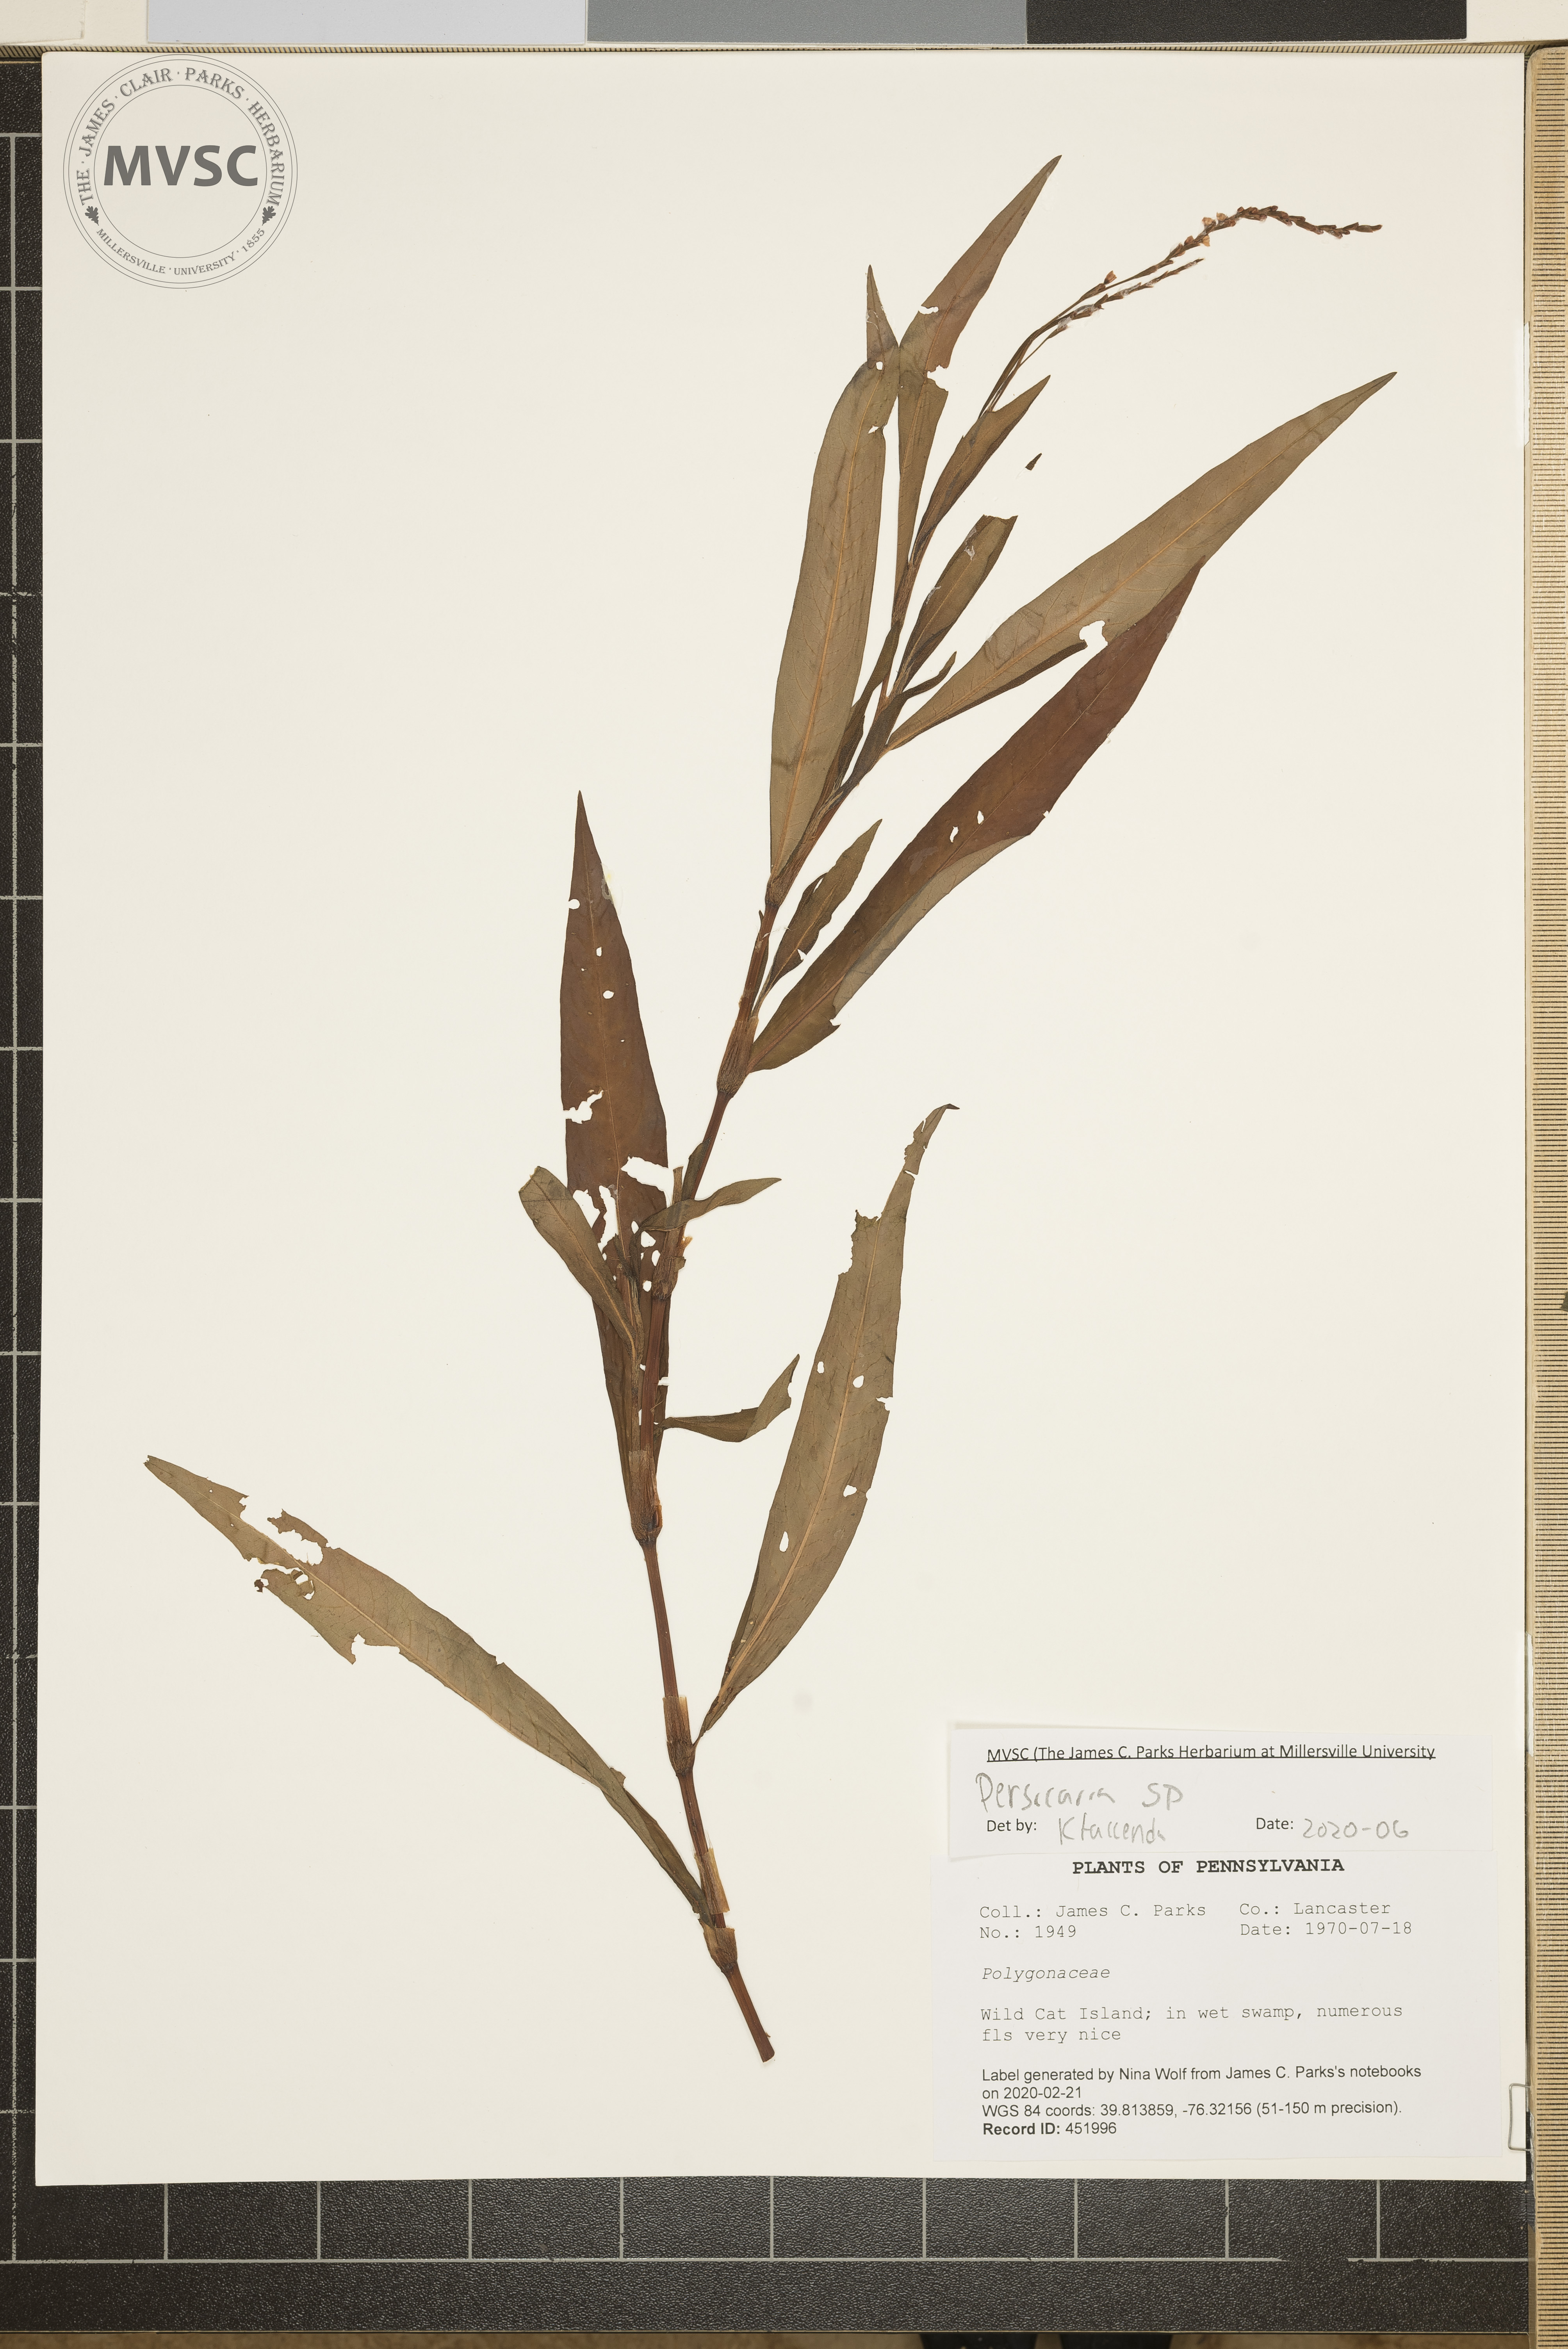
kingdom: Plantae
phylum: Tracheophyta
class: Magnoliopsida
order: Caryophyllales
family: Polygonaceae
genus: Persicaria
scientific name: Persicaria
